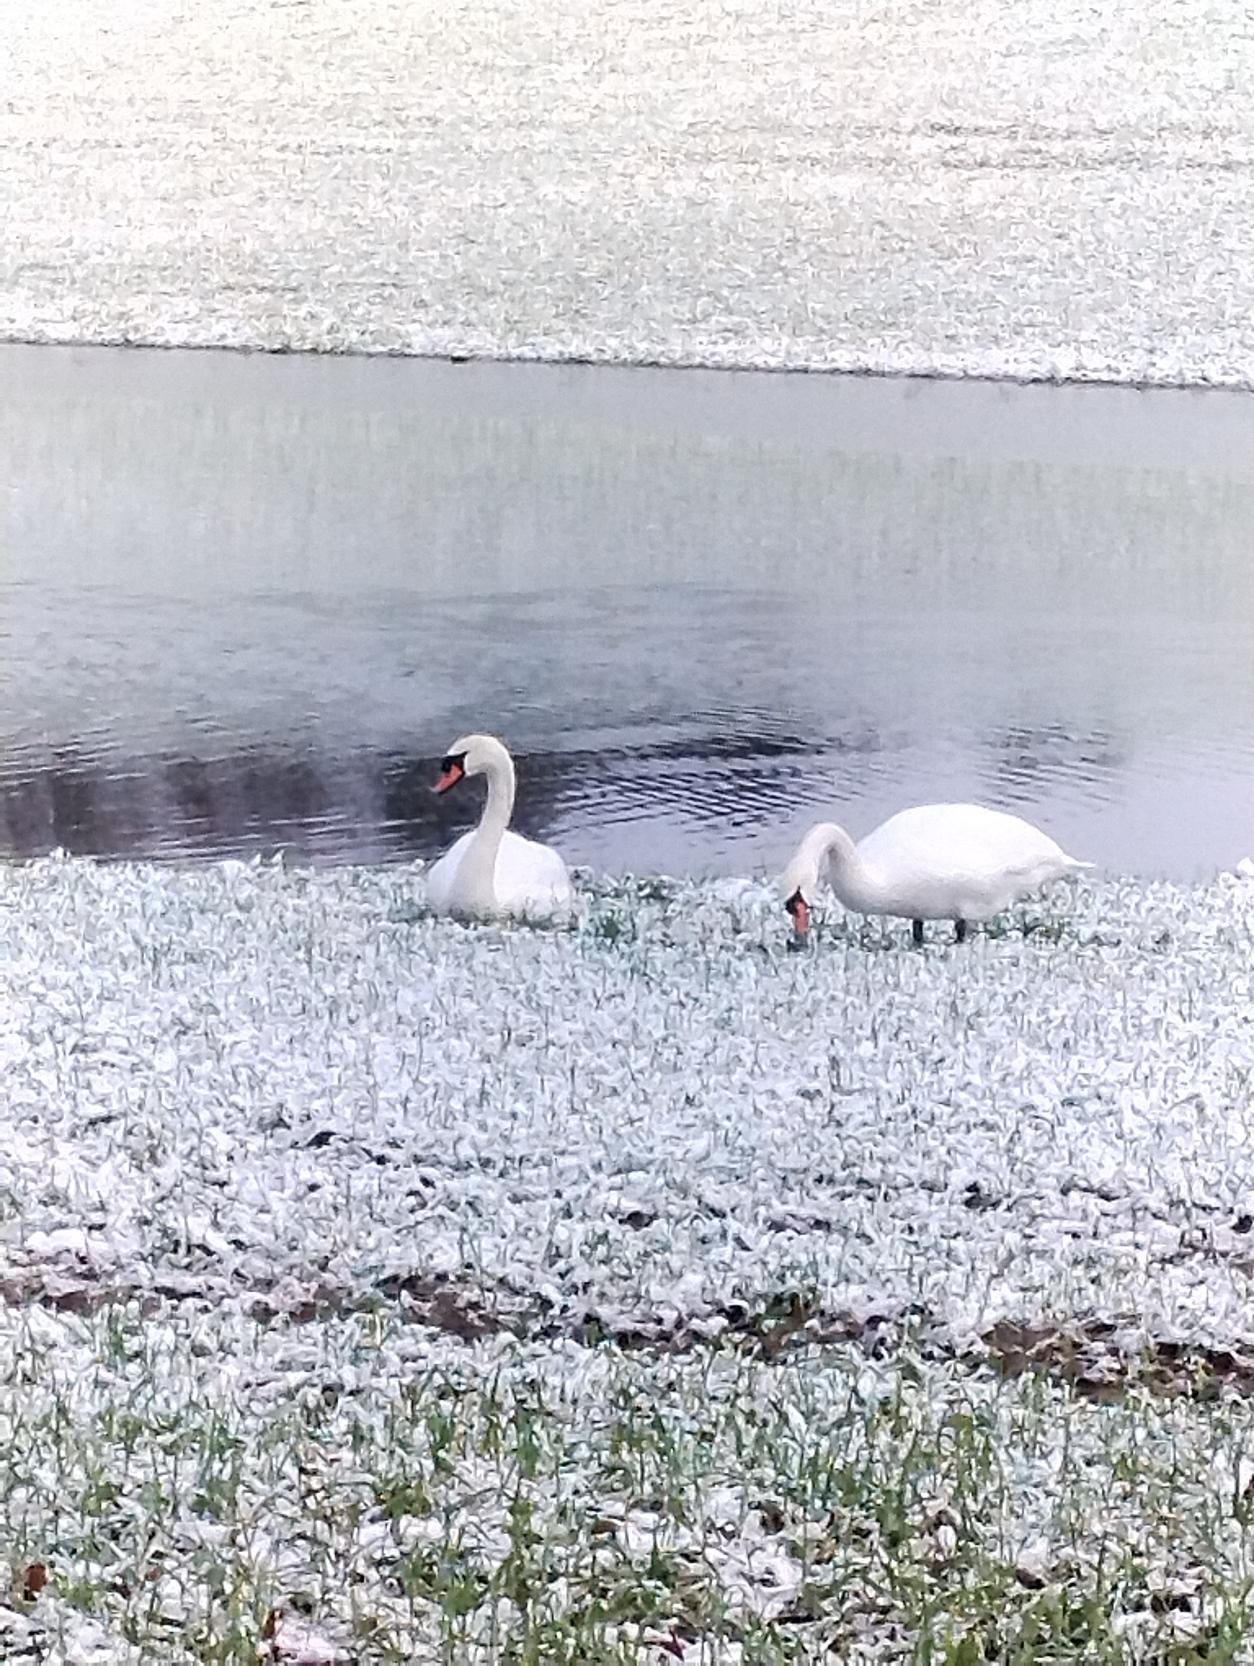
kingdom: Animalia
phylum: Chordata
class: Aves
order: Anseriformes
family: Anatidae
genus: Cygnus
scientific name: Cygnus olor
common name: Knopsvane
